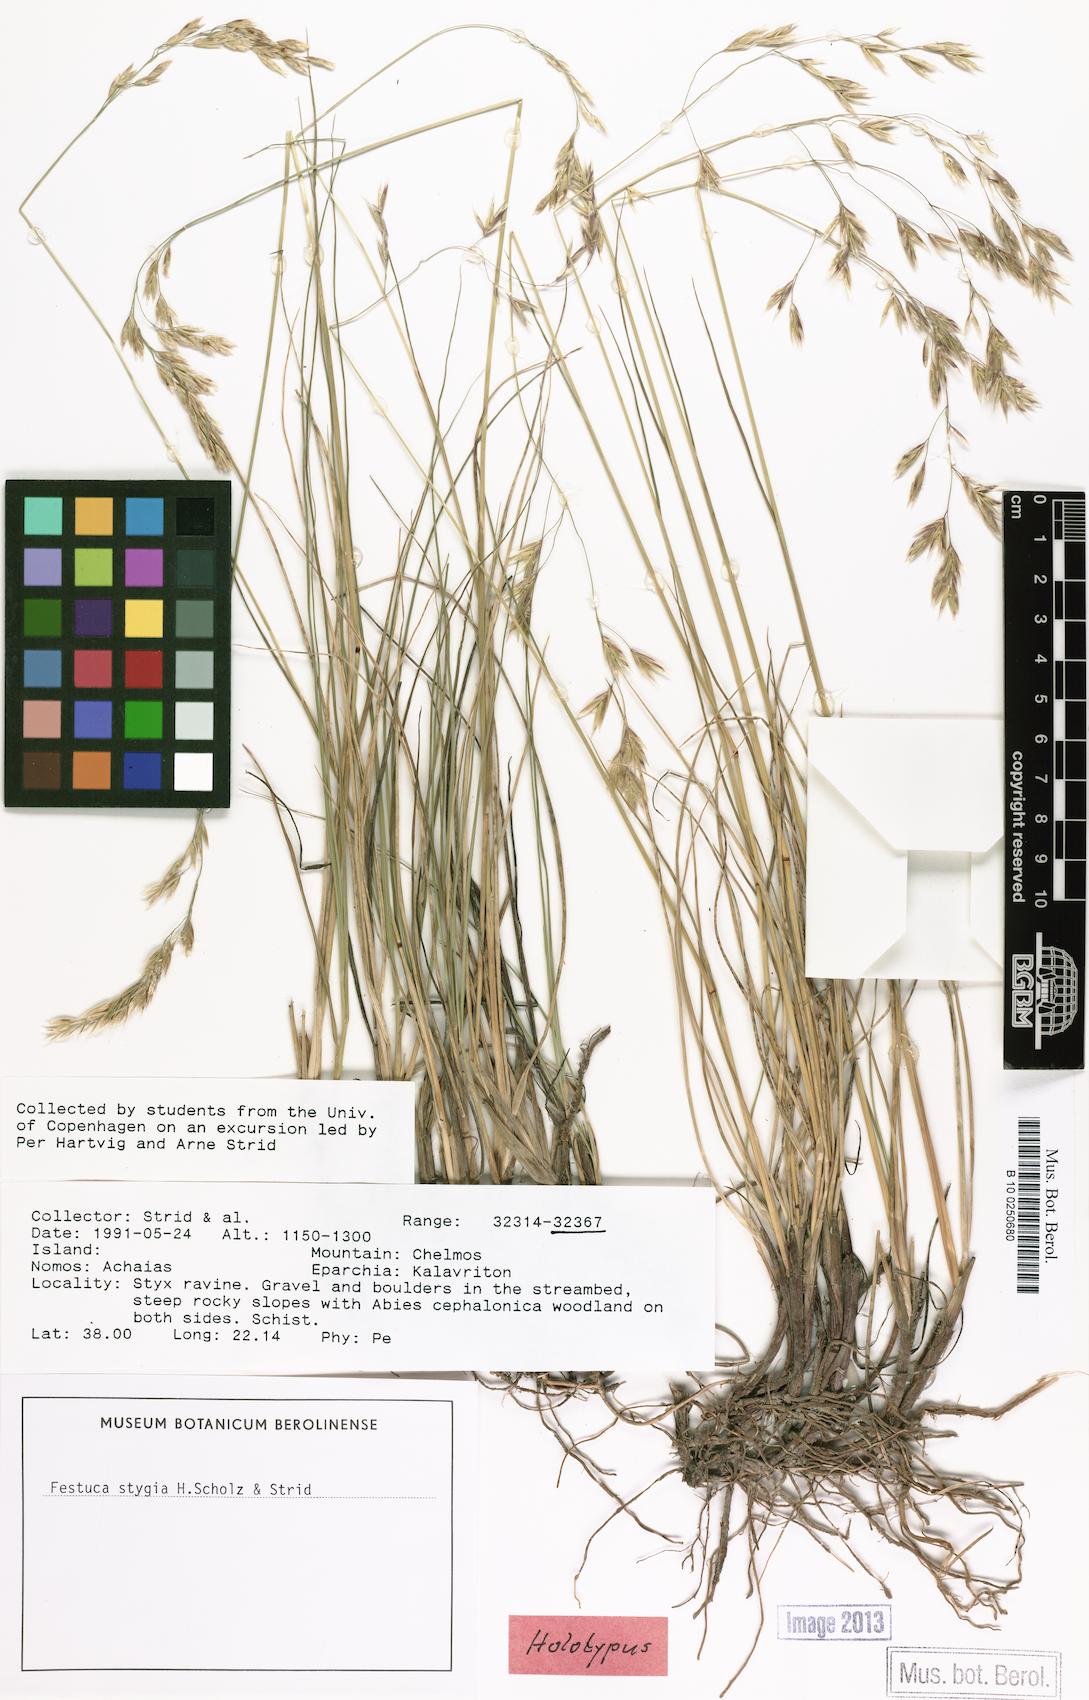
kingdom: Plantae
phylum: Tracheophyta
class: Liliopsida
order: Poales
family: Poaceae
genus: Festuca
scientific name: Festuca spectabilis
